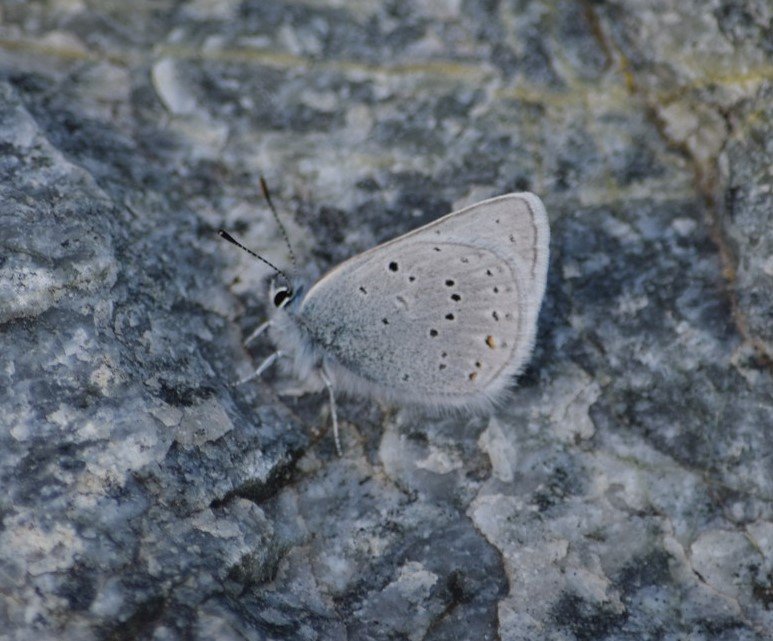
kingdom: Animalia
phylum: Arthropoda
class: Insecta
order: Lepidoptera
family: Lycaenidae
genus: Plebejus
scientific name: Plebejus saepiolus
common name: Greenish Blue
